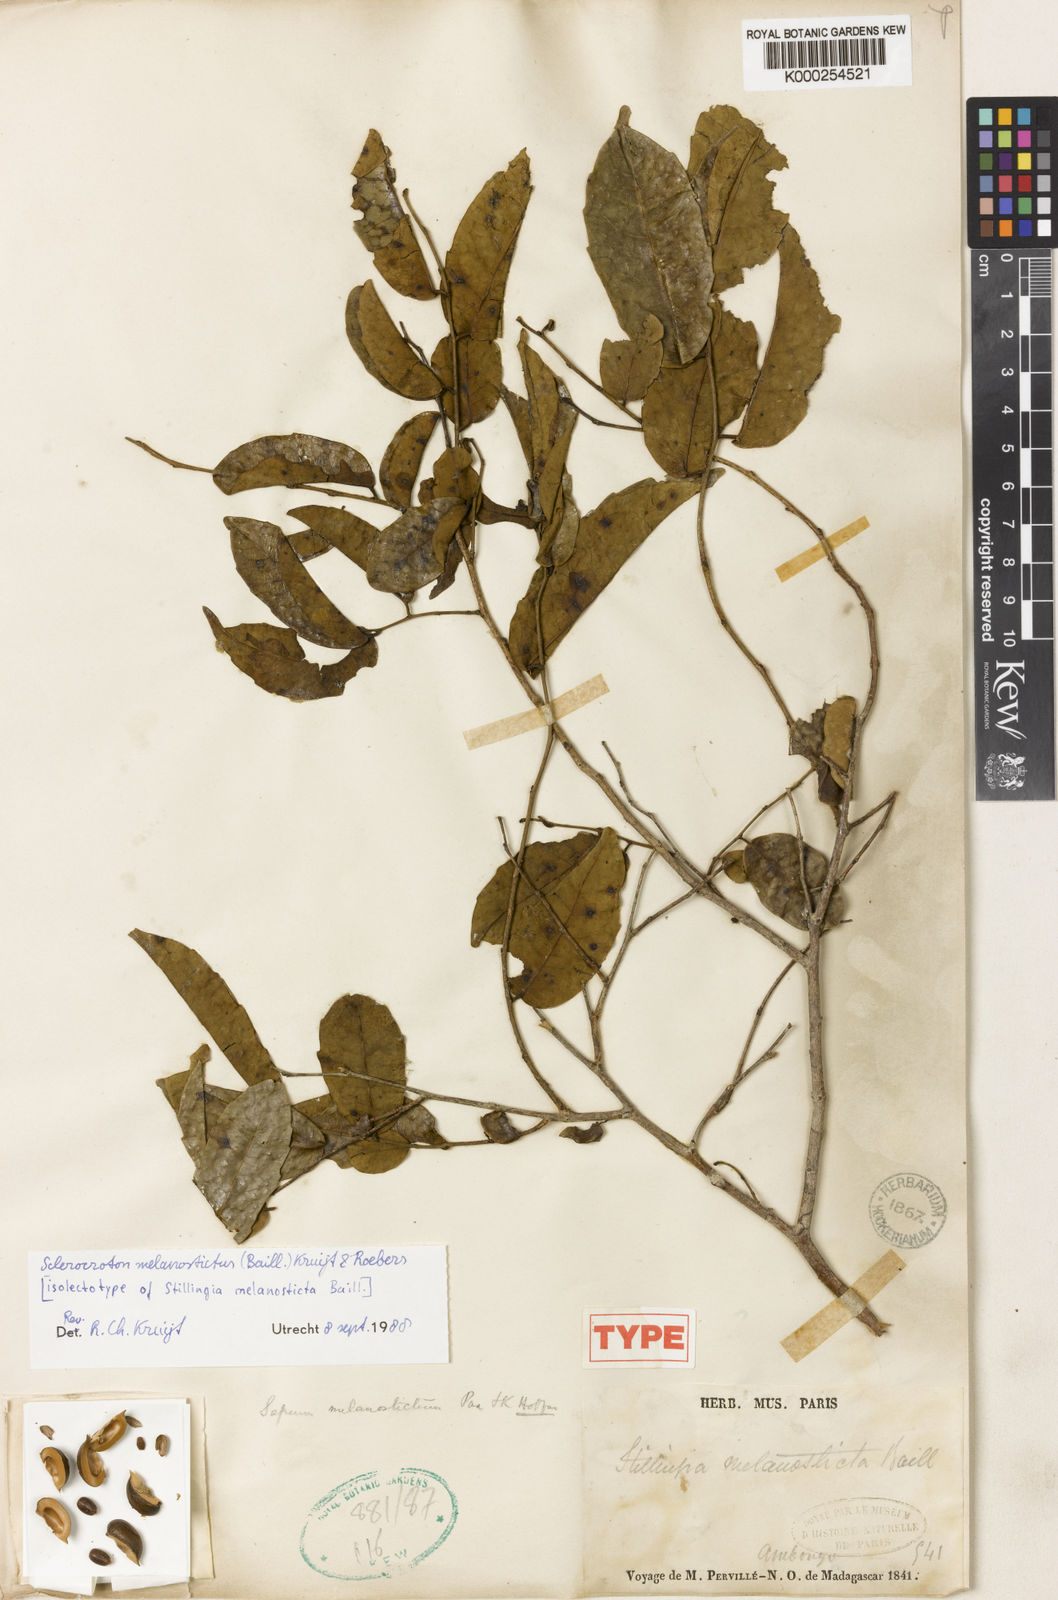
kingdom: Plantae
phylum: Tracheophyta
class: Magnoliopsida
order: Malpighiales
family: Euphorbiaceae
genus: Sclerocroton
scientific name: Sclerocroton melanostictus
